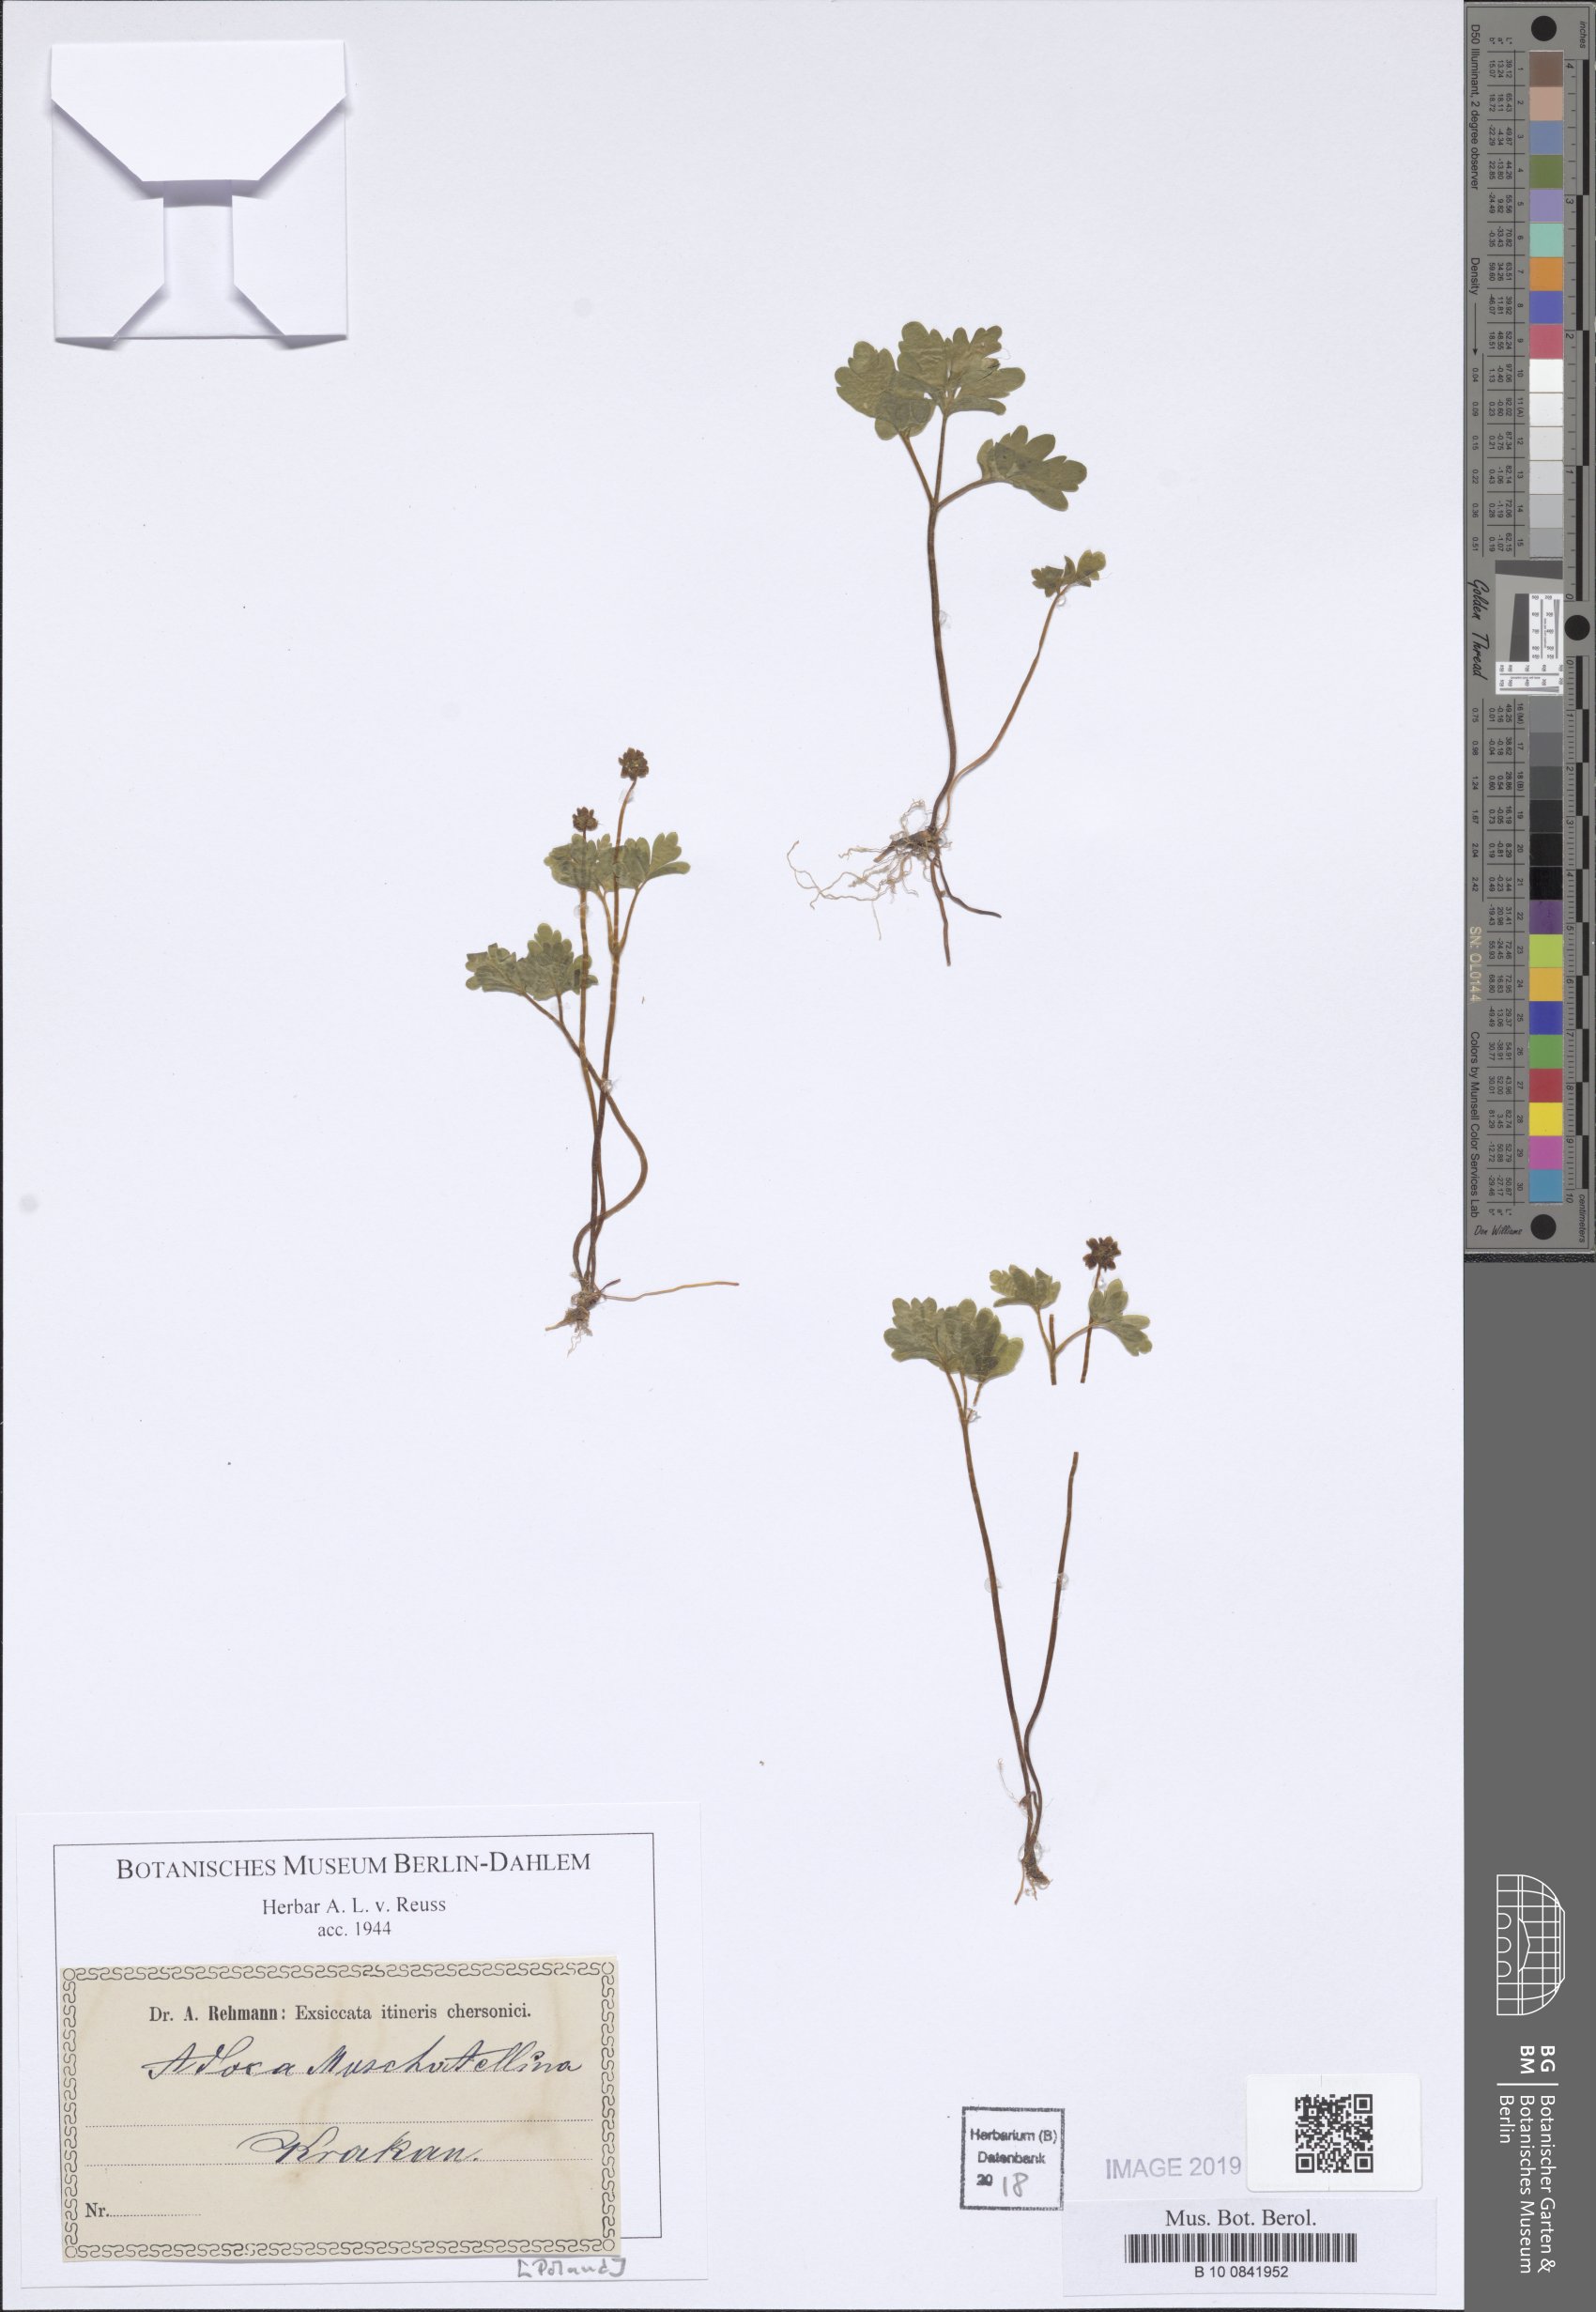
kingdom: Plantae
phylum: Tracheophyta
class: Magnoliopsida
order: Dipsacales
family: Viburnaceae
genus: Adoxa
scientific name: Adoxa moschatellina
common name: Moschatel
